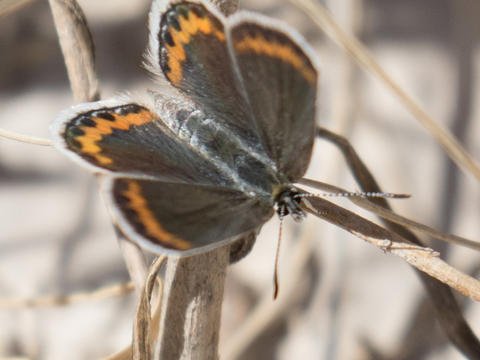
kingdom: Animalia
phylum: Arthropoda
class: Insecta
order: Lepidoptera
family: Lycaenidae
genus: Lycaeides
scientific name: Lycaeides melissa
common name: Melissa Blue
